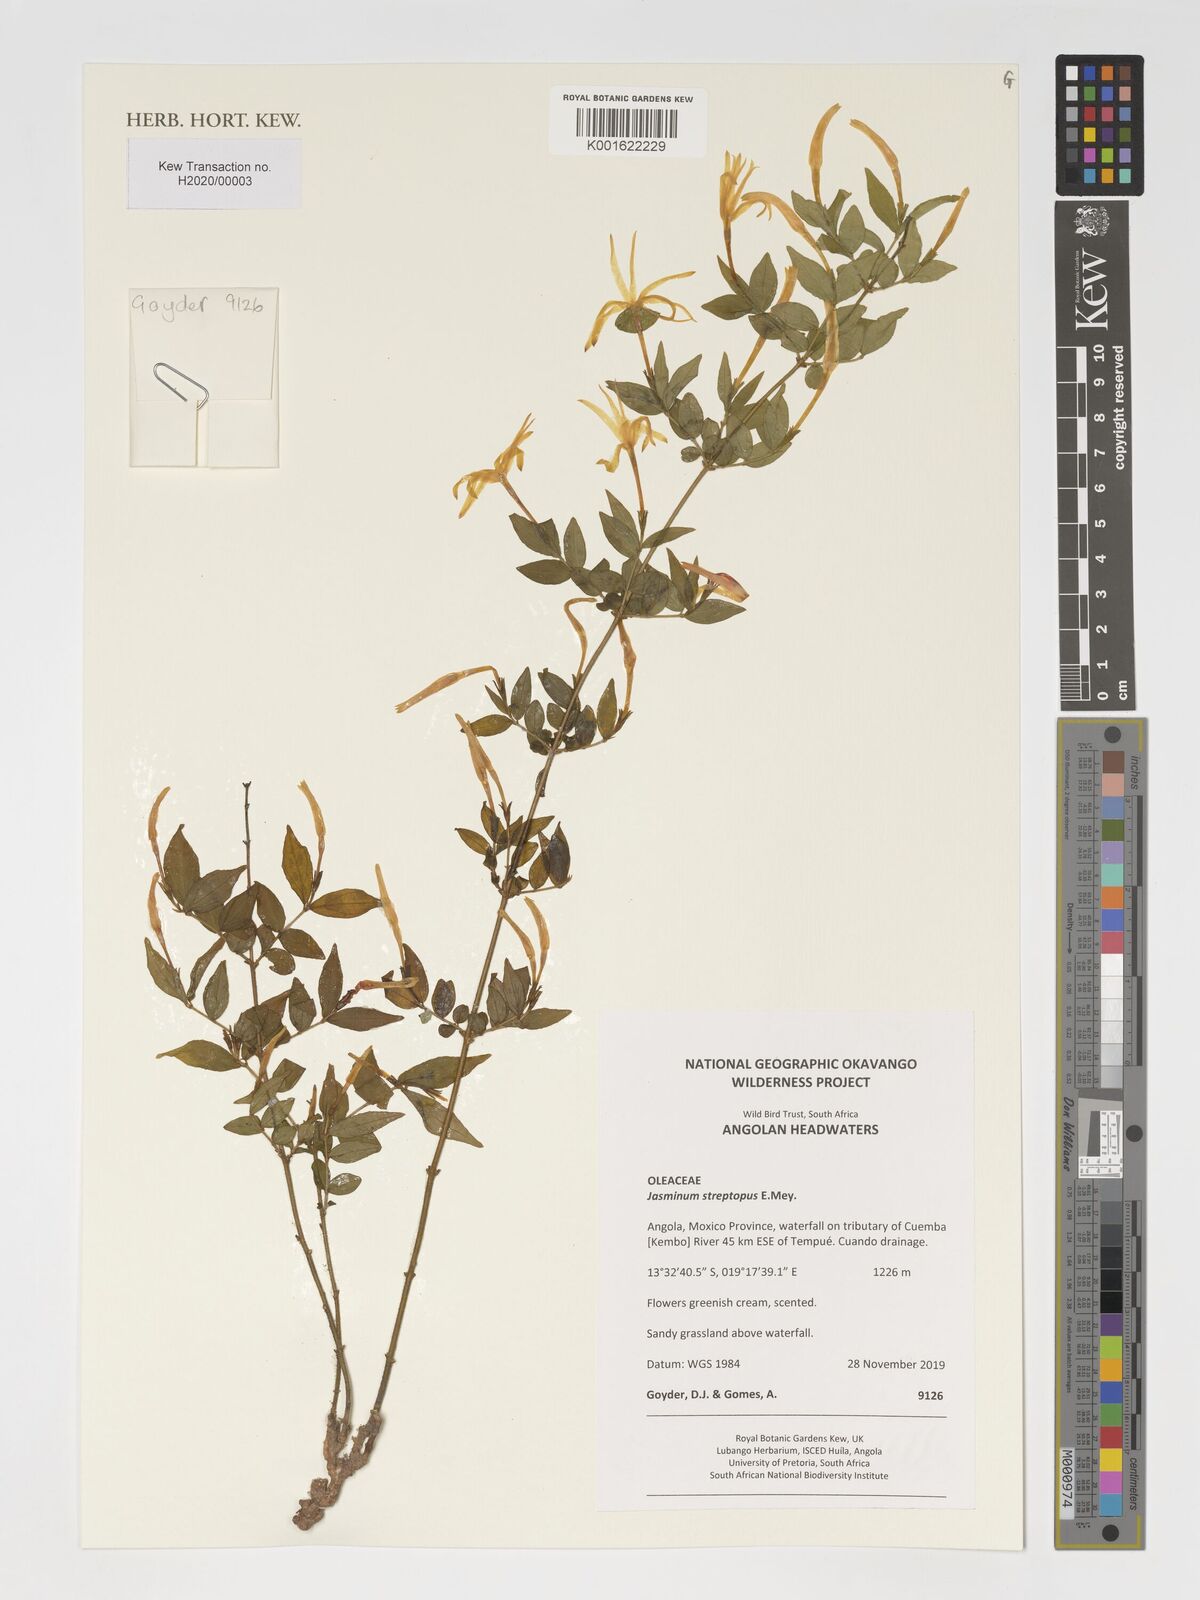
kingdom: Plantae
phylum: Tracheophyta
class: Magnoliopsida
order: Lamiales
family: Oleaceae
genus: Jasminum
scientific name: Jasminum streptopus
